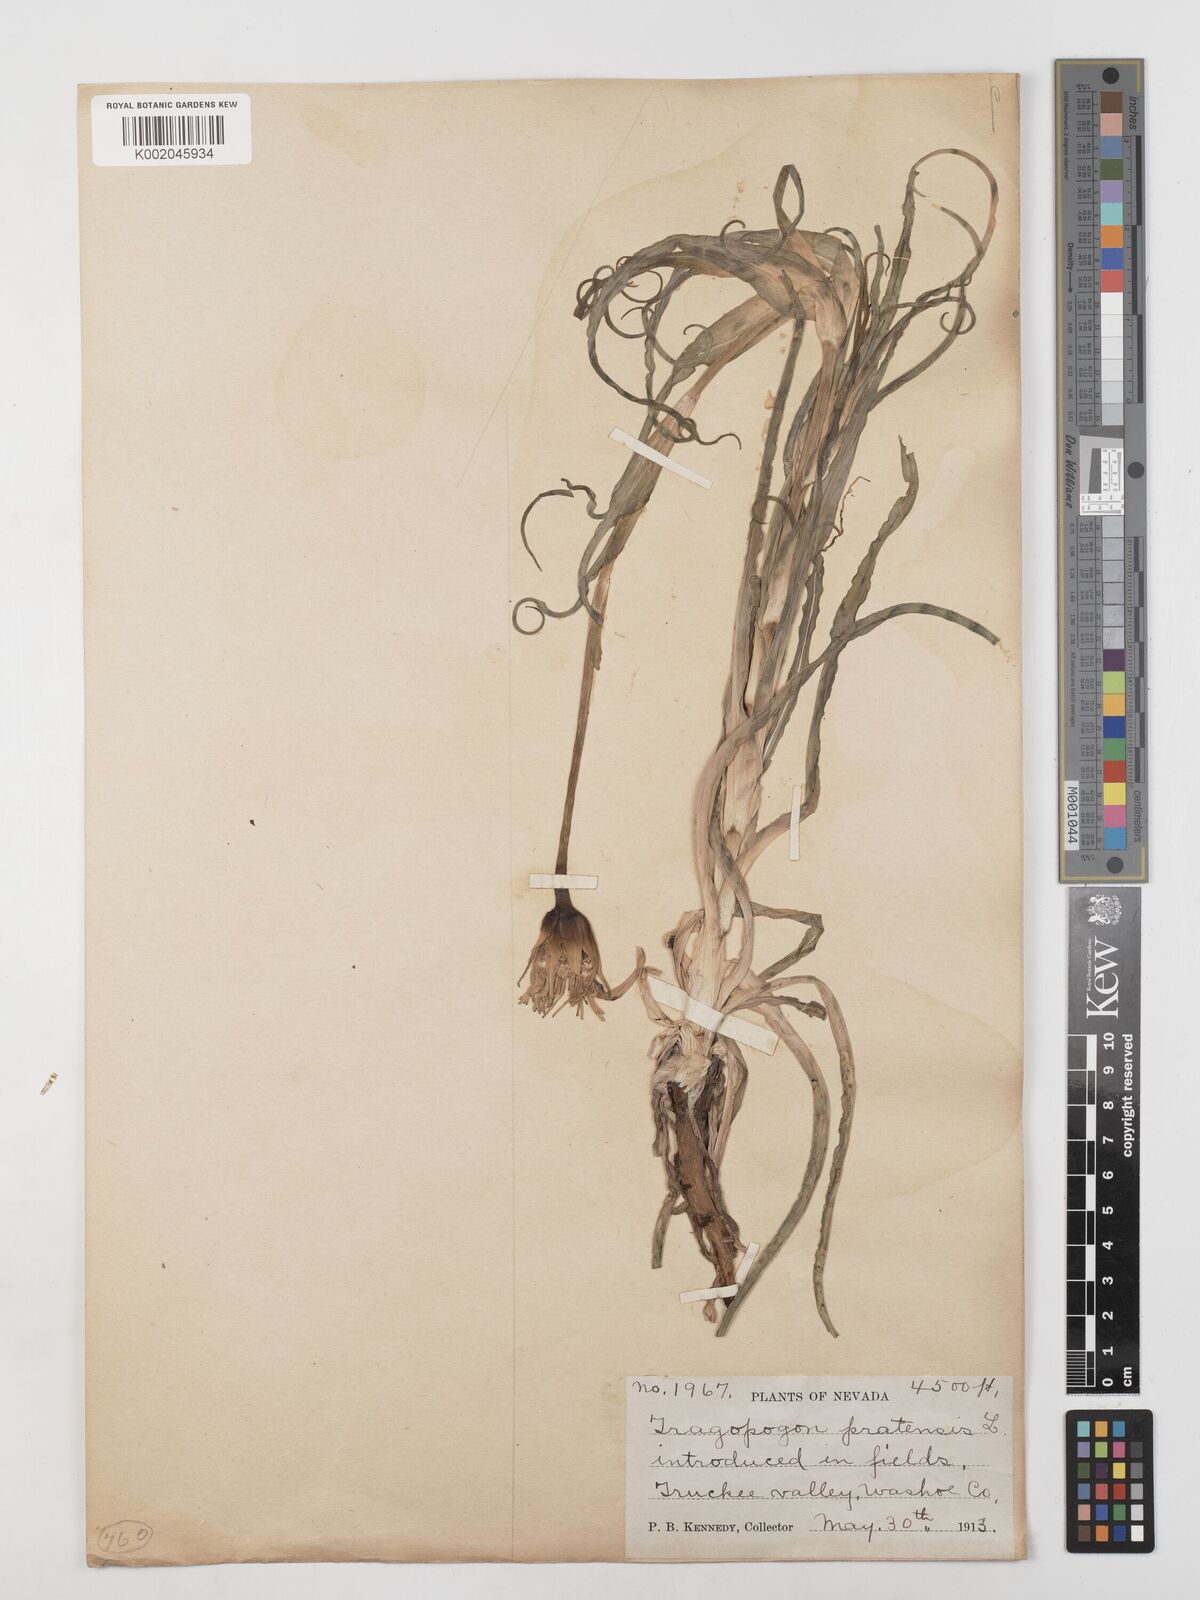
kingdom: Plantae
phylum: Tracheophyta
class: Magnoliopsida
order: Asterales
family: Asteraceae
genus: Tragopogon
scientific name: Tragopogon pratensis
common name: Goat's-beard
